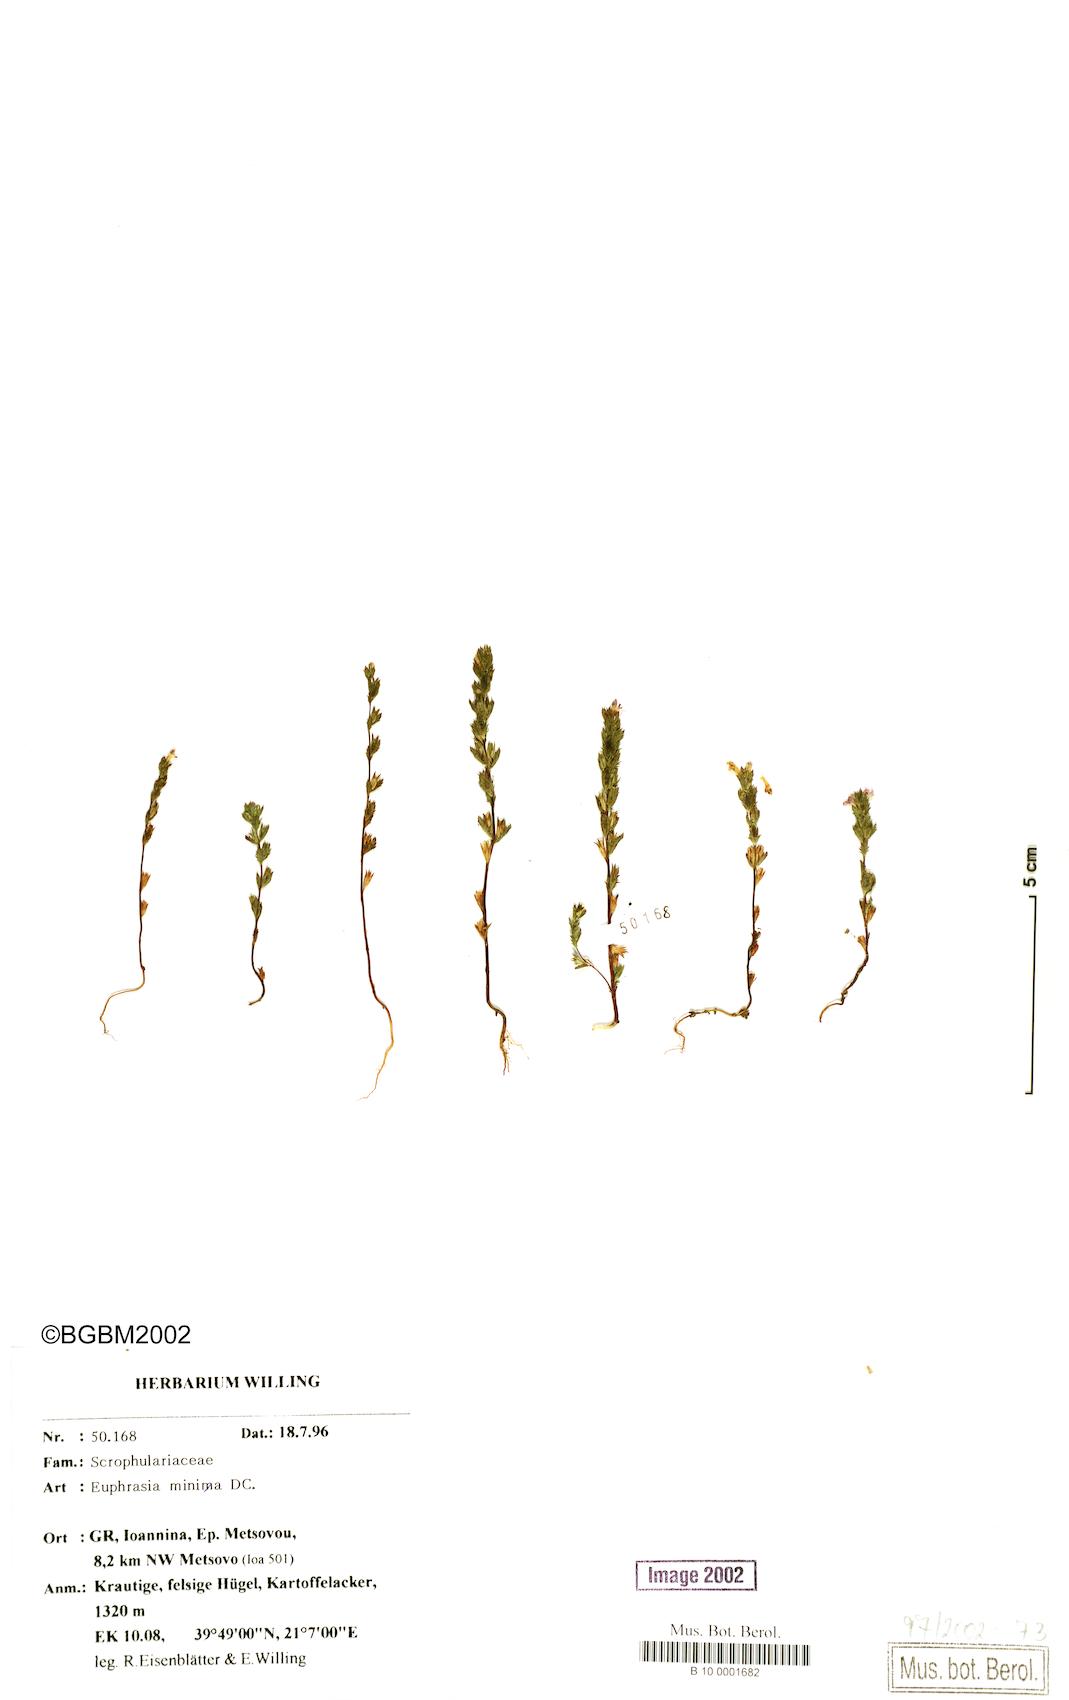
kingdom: Plantae
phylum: Tracheophyta
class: Magnoliopsida
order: Lamiales
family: Orobanchaceae
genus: Euphrasia
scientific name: Euphrasia minima
